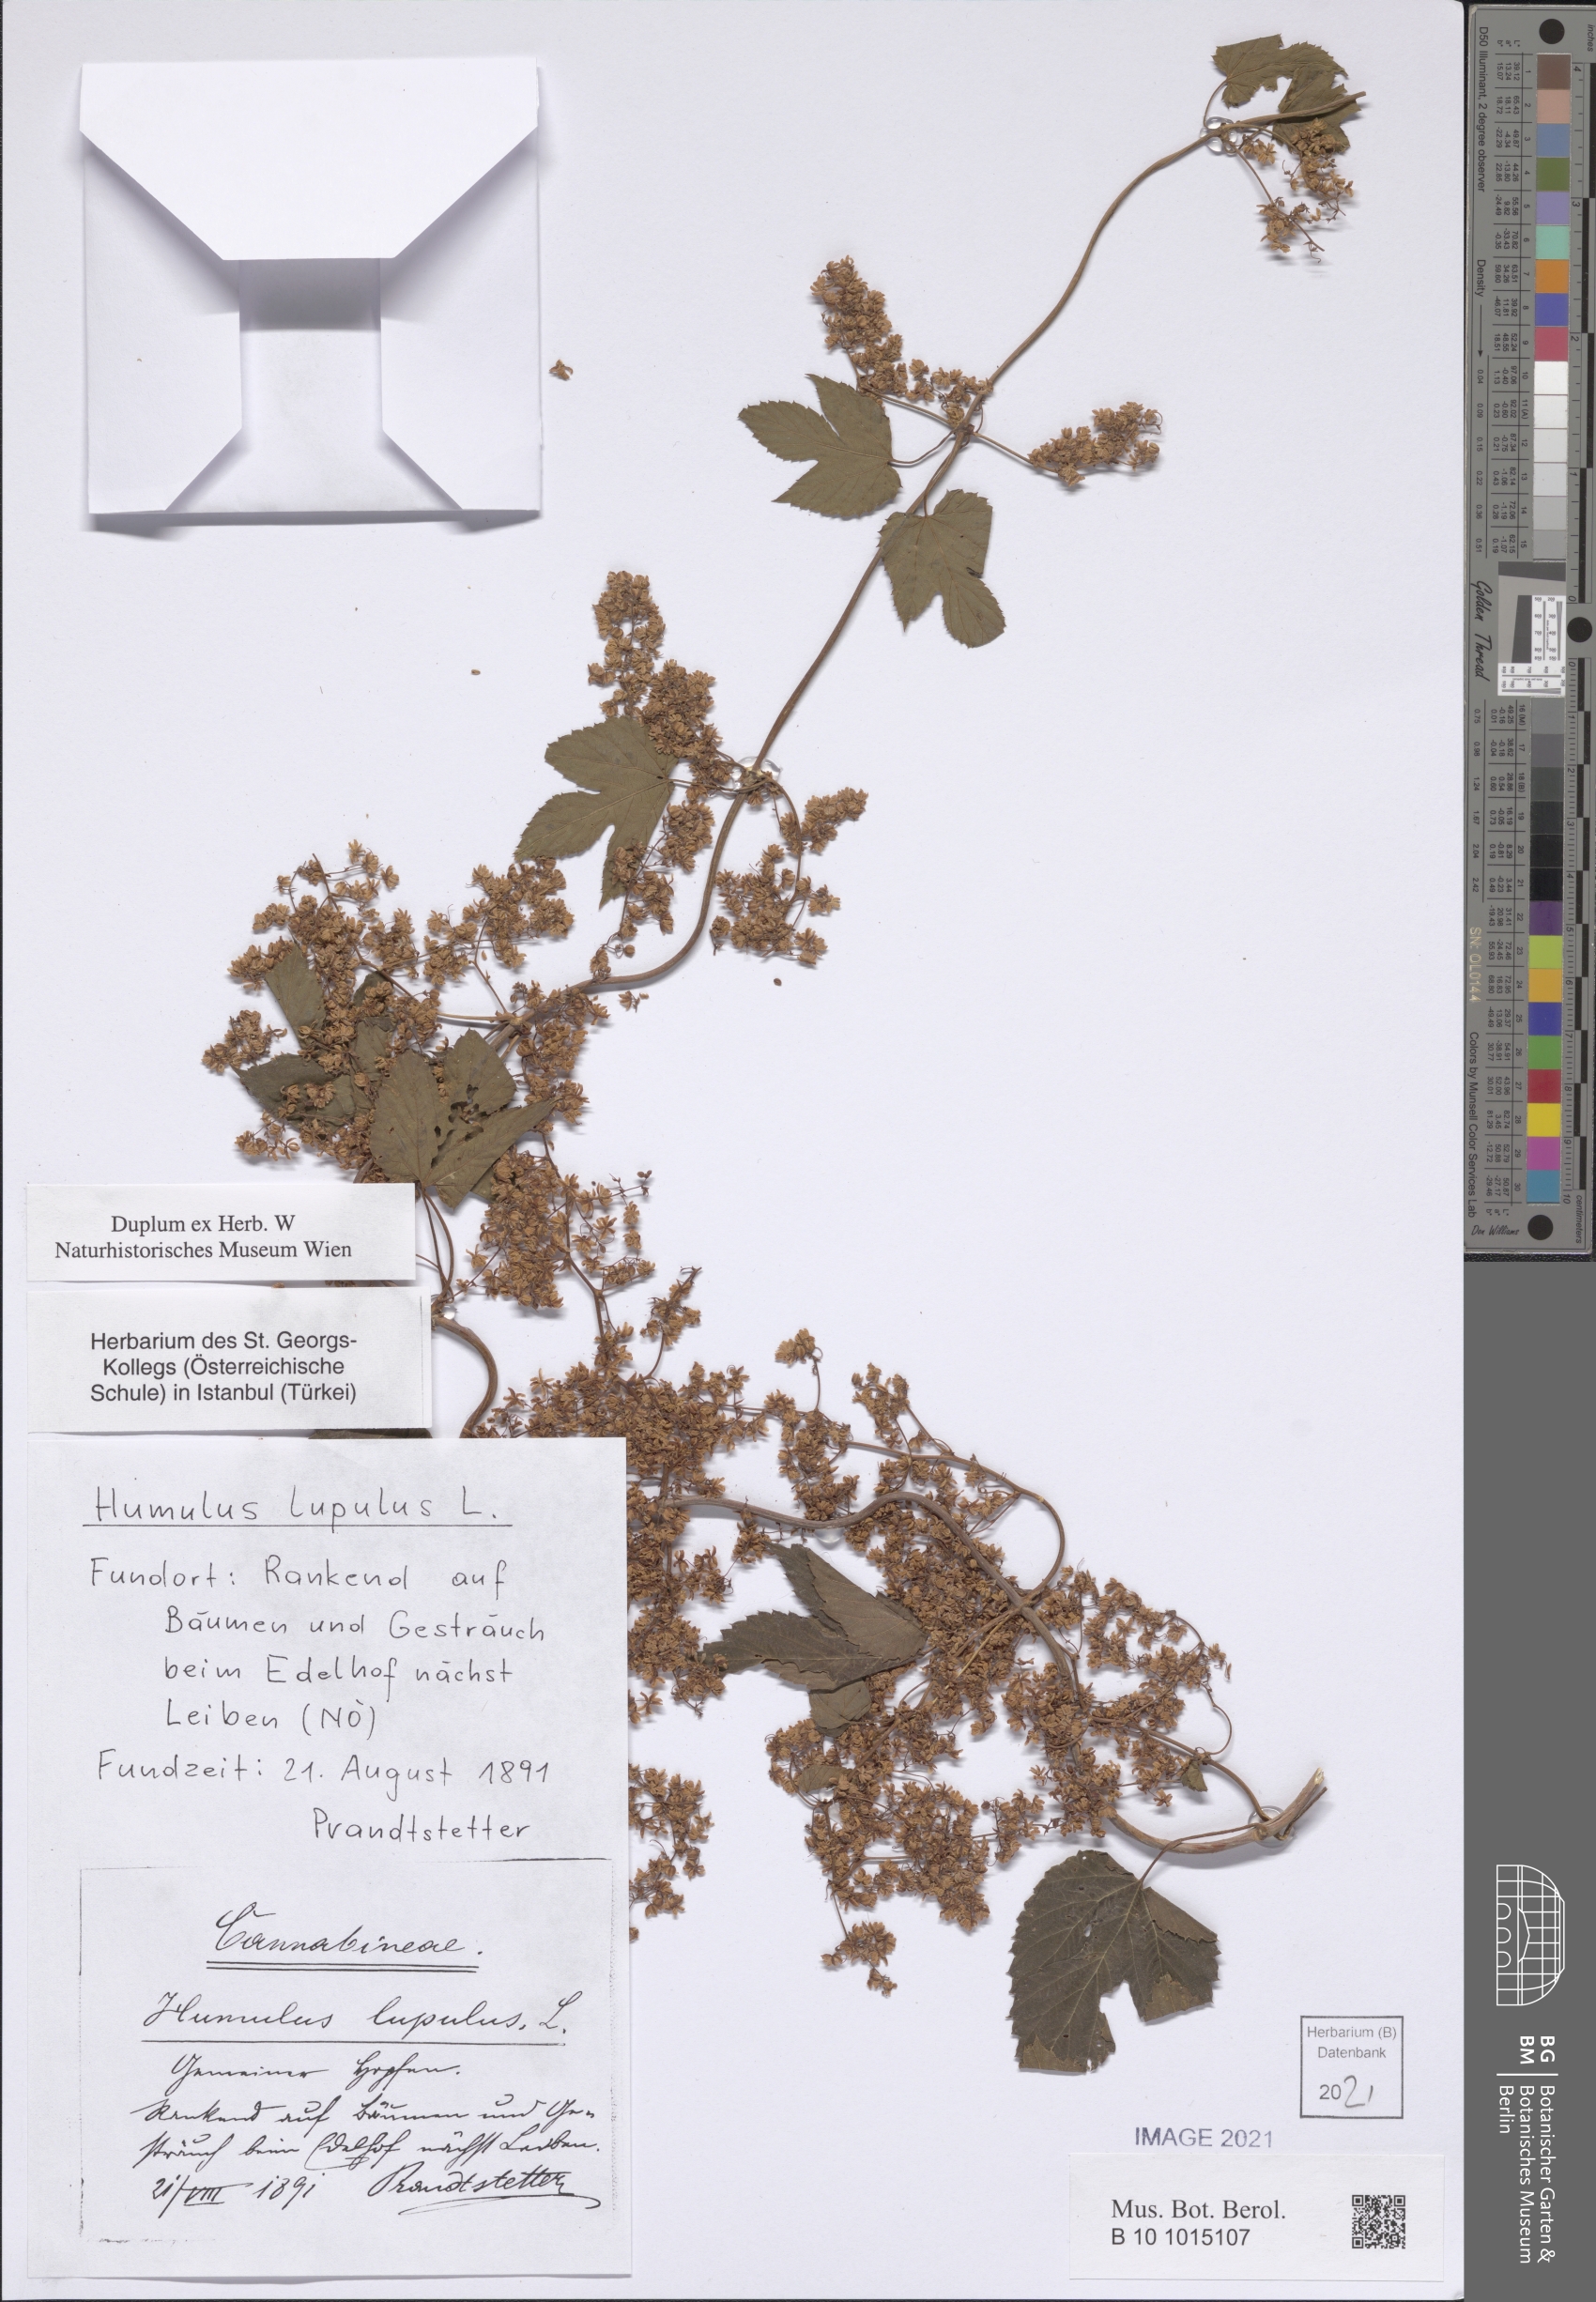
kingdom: Plantae
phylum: Tracheophyta
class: Magnoliopsida
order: Rosales
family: Cannabaceae
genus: Humulus
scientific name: Humulus lupulus
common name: Hop
